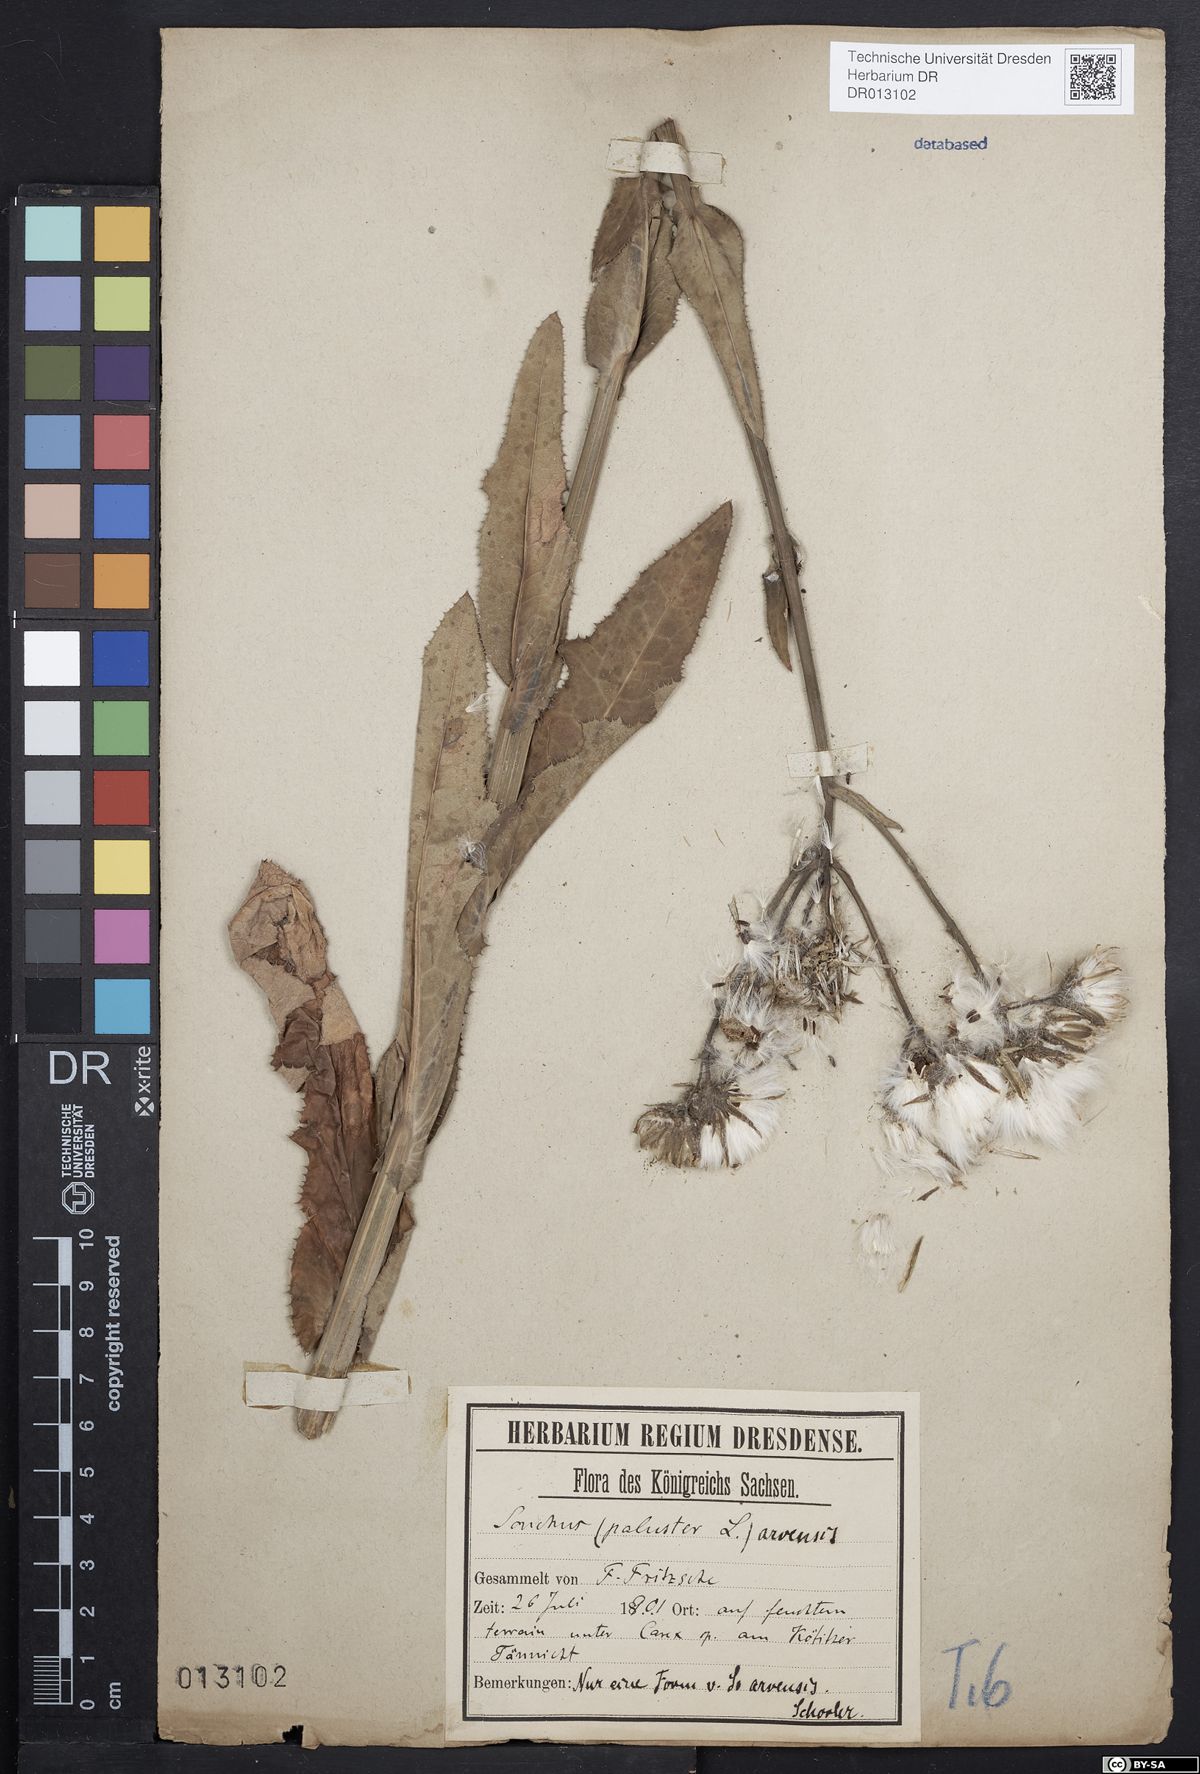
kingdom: Plantae
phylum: Tracheophyta
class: Magnoliopsida
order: Asterales
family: Asteraceae
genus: Sonchus
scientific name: Sonchus arvensis
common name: Perennial sow-thistle
